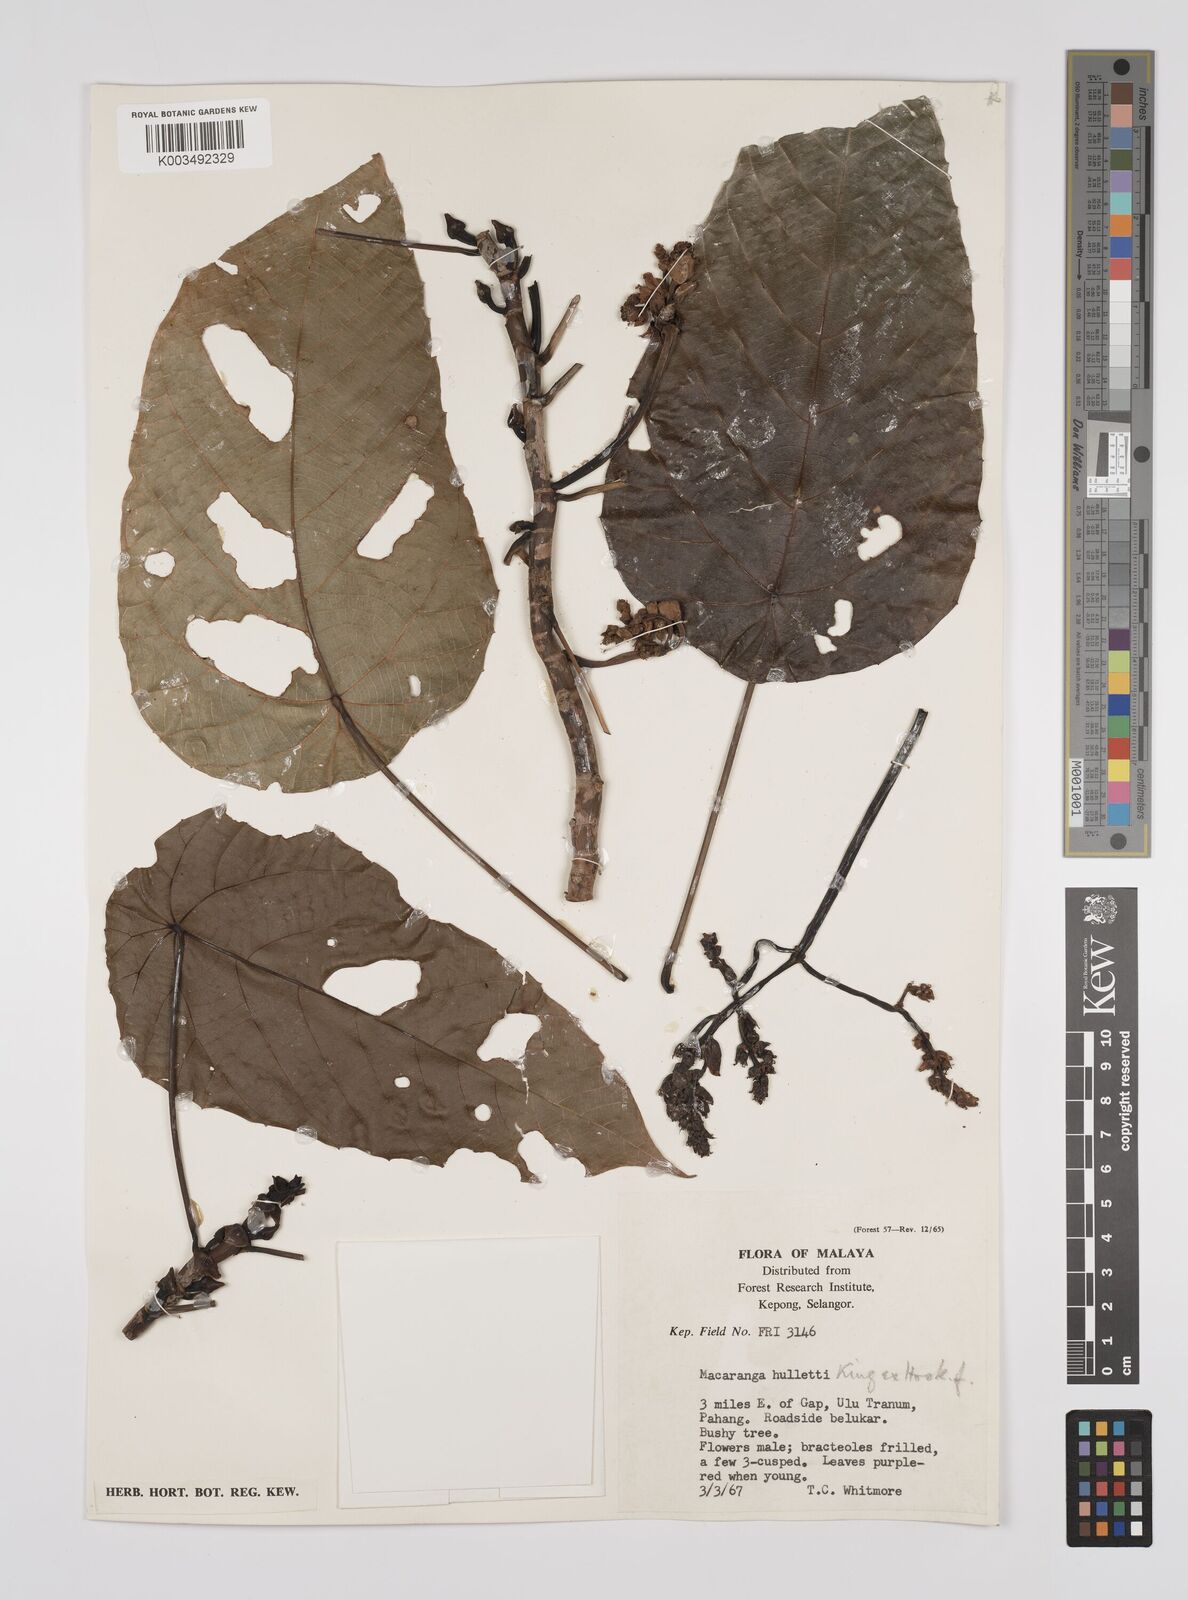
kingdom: Plantae
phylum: Tracheophyta
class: Magnoliopsida
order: Malpighiales
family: Euphorbiaceae
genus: Macaranga
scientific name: Macaranga hullettii
